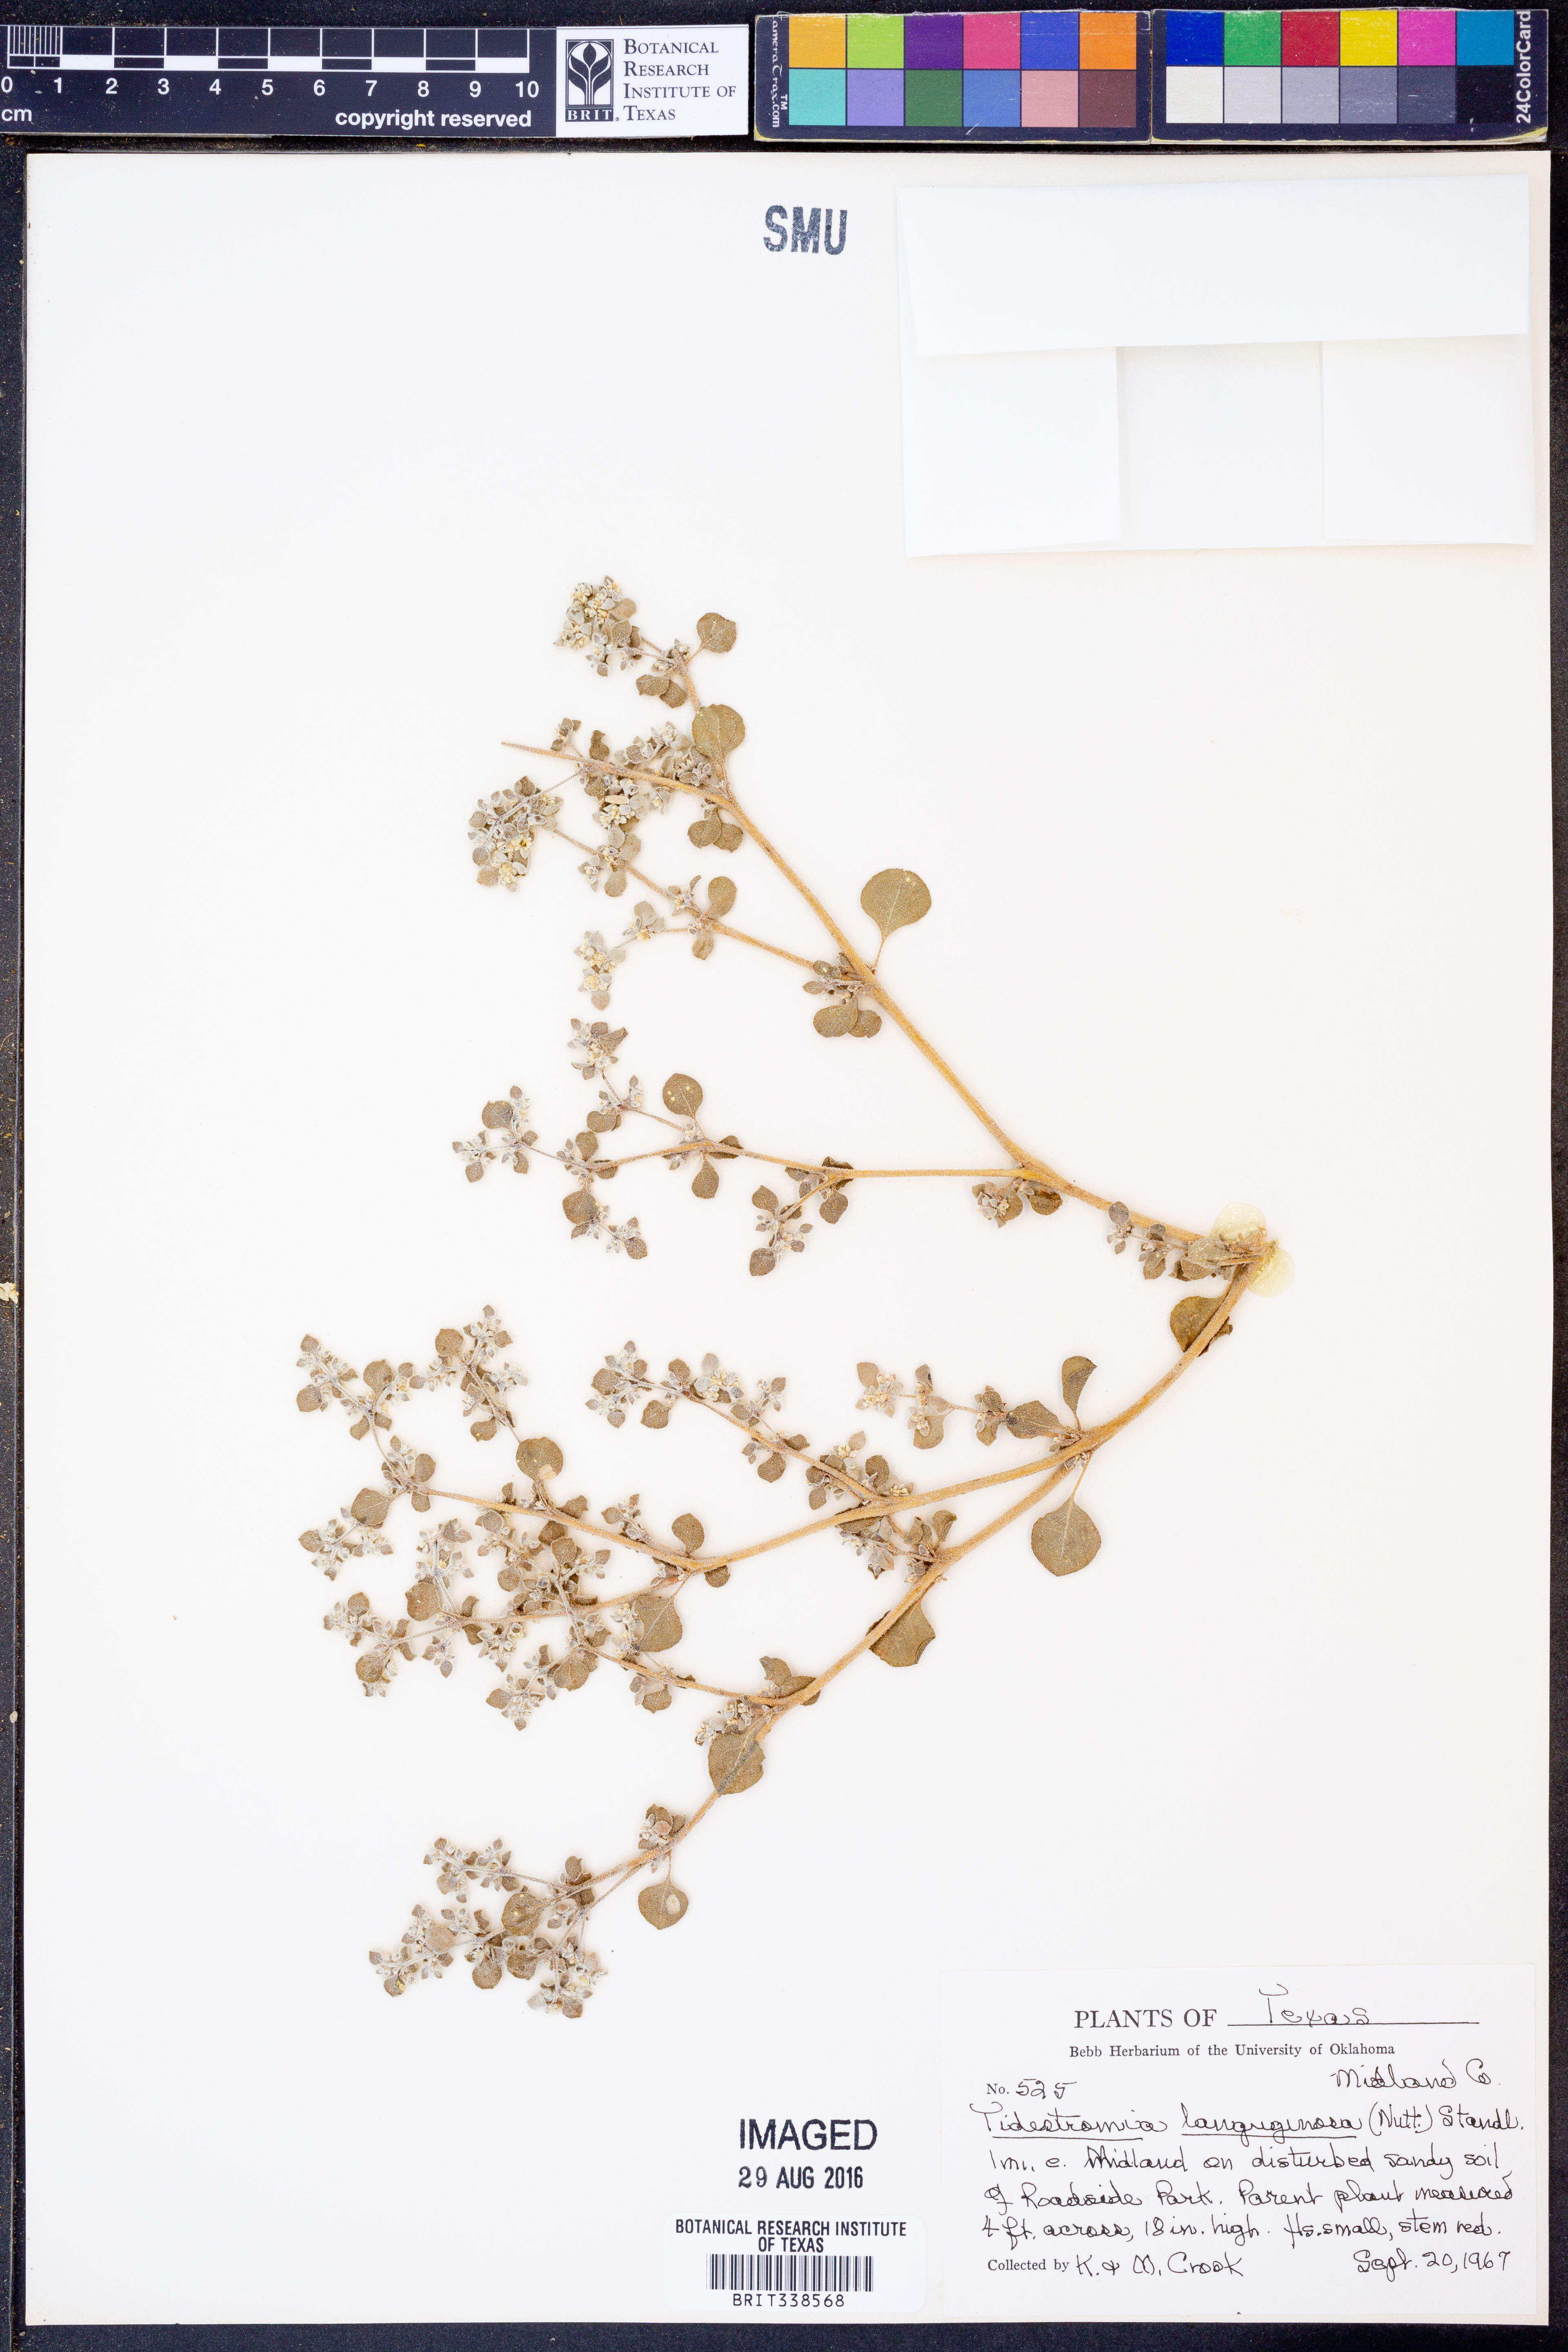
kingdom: Plantae
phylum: Tracheophyta
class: Magnoliopsida
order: Caryophyllales
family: Amaranthaceae
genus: Tidestromia
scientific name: Tidestromia lanuginosa
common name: Woolly tidestromia
